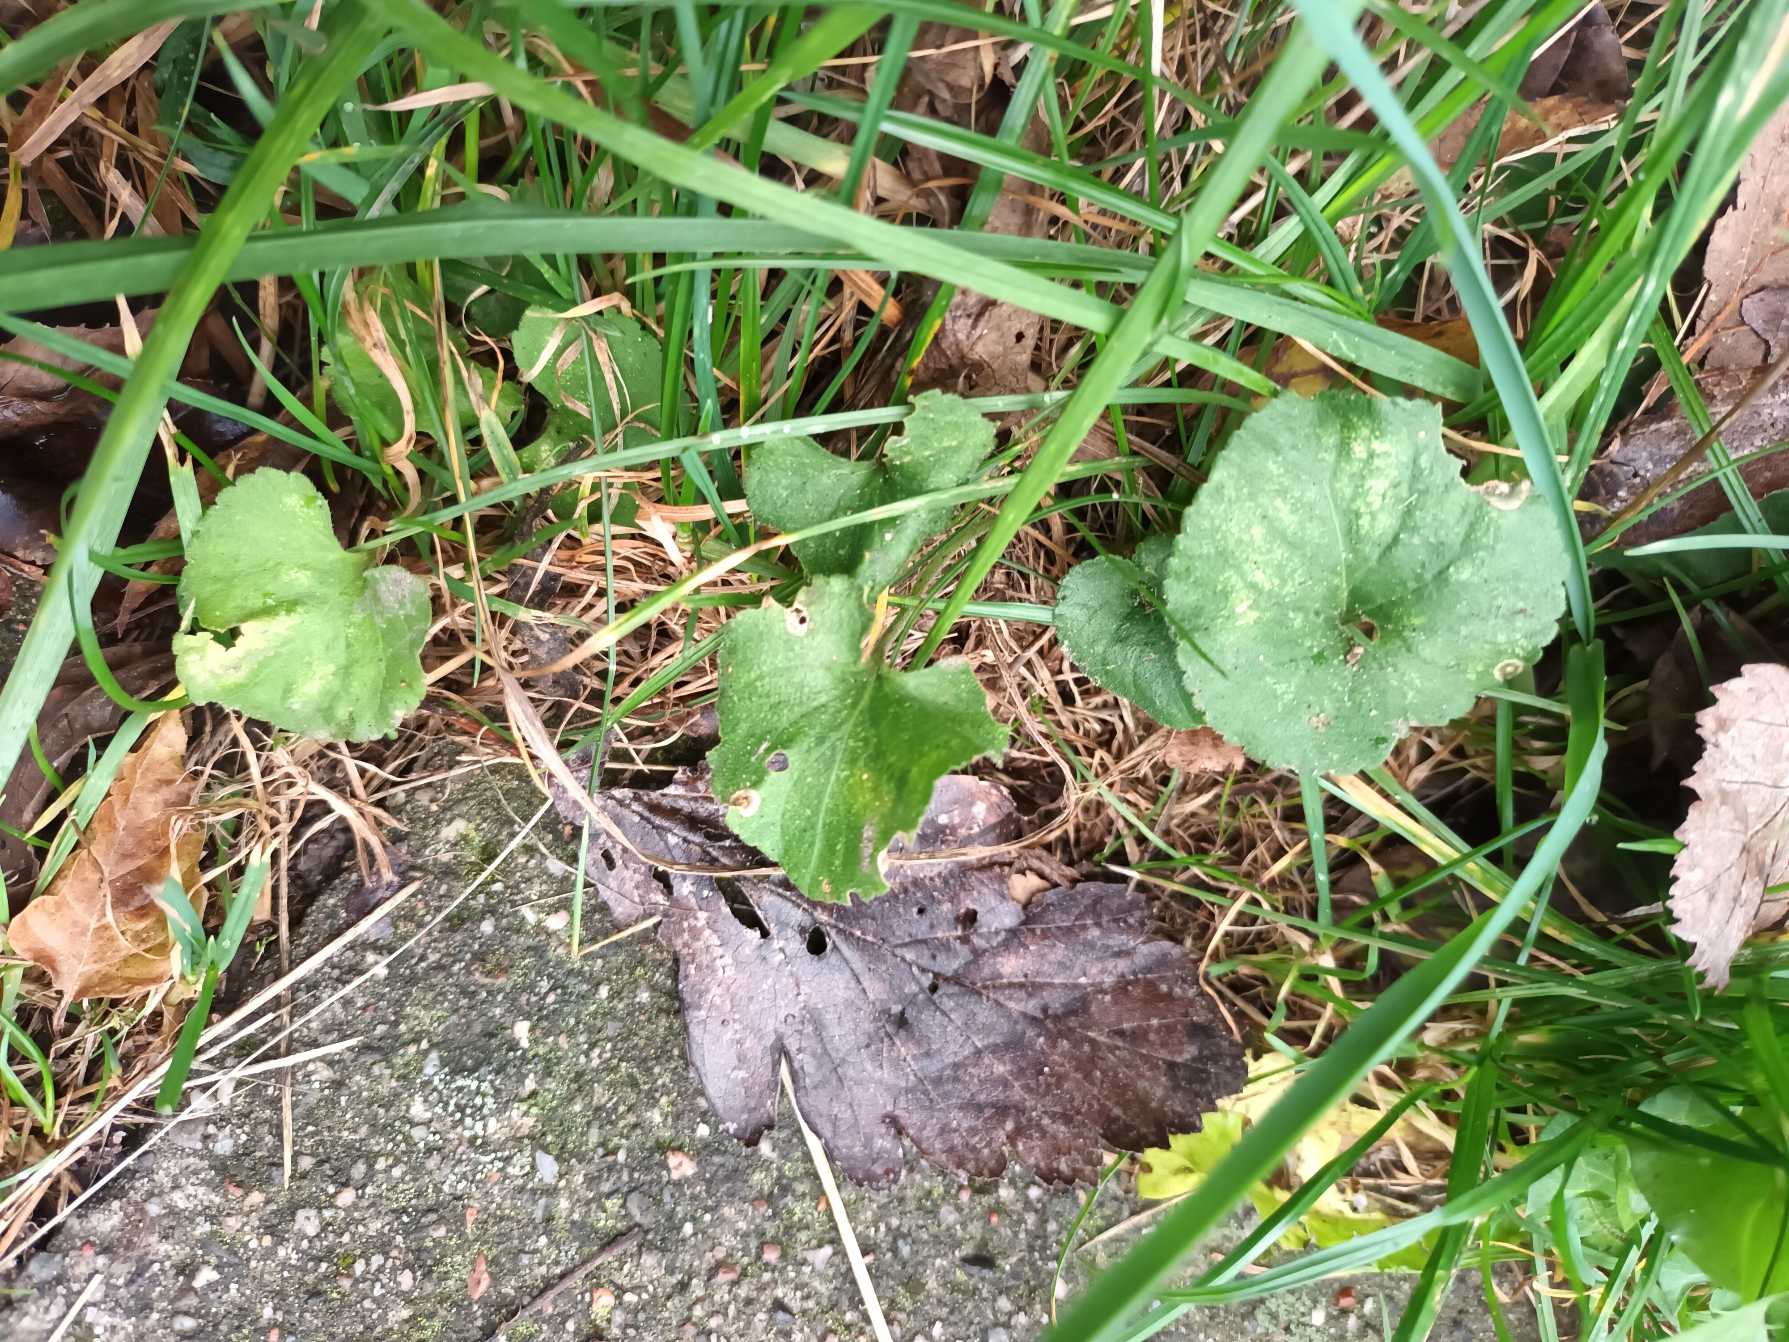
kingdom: Plantae
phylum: Tracheophyta
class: Magnoliopsida
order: Malpighiales
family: Violaceae
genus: Viola
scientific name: Viola odorata
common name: Marts-viol
